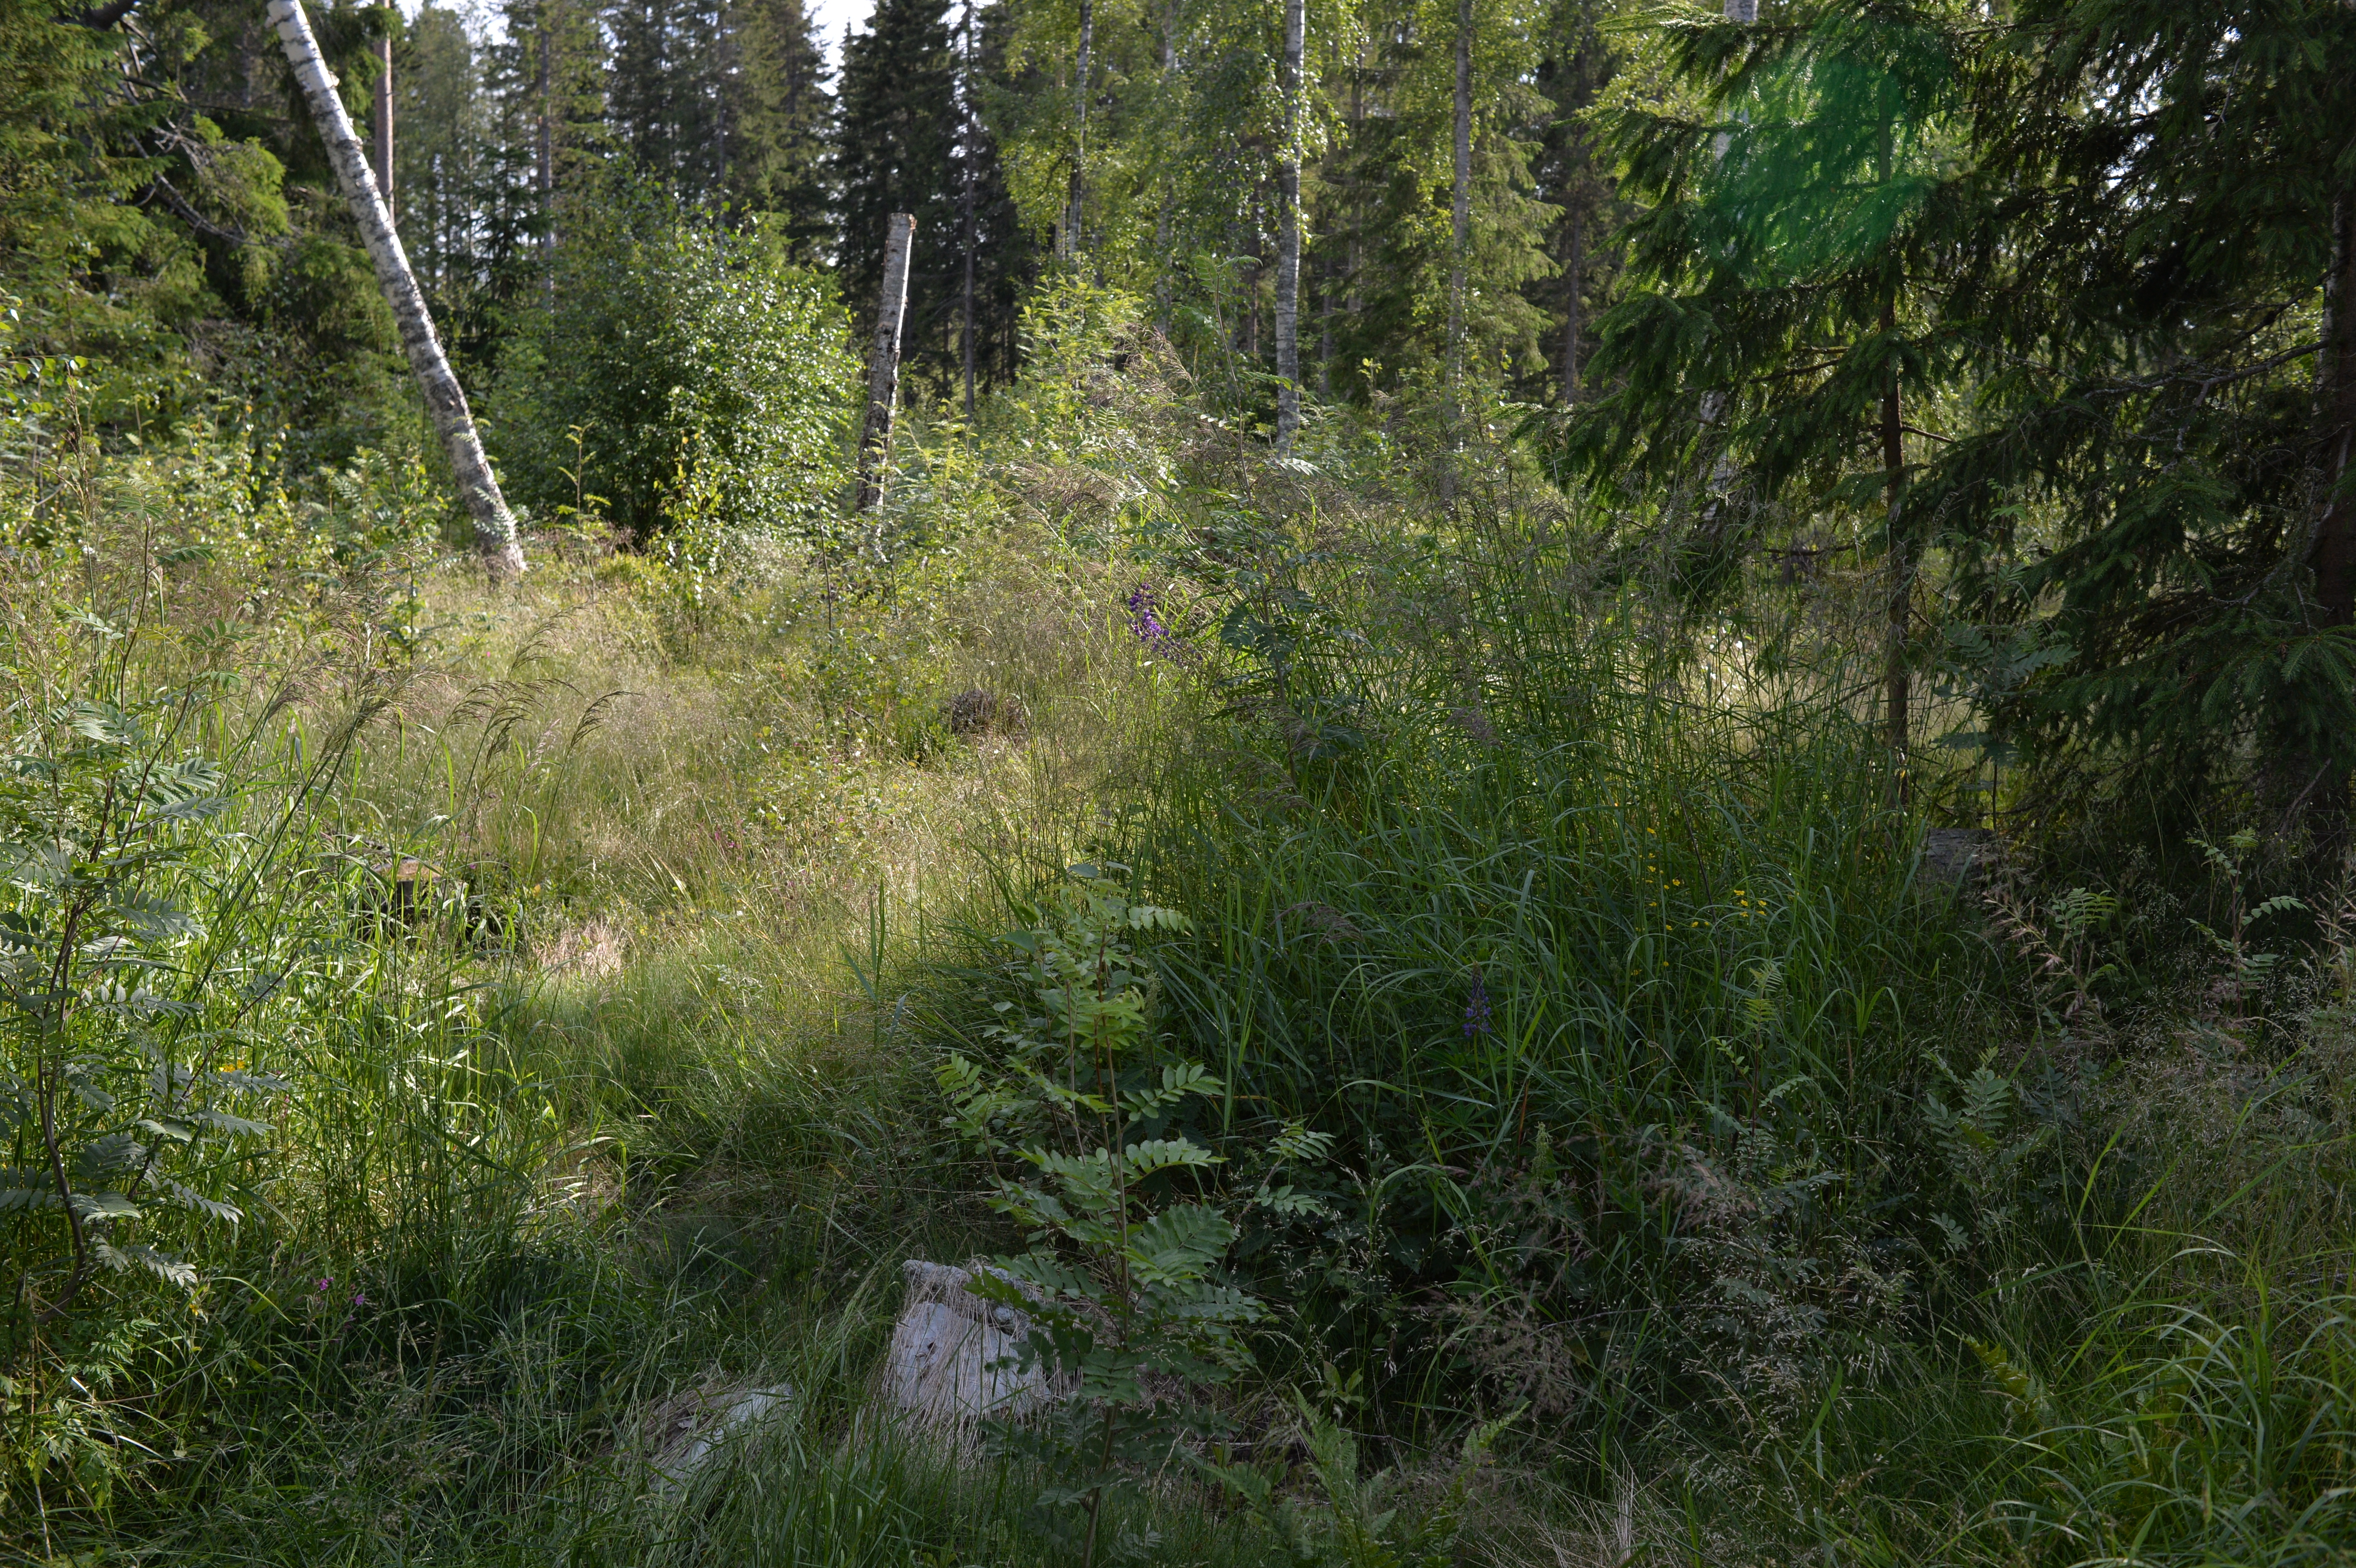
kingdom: Plantae
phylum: Tracheophyta
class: Magnoliopsida
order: Fabales
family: Fabaceae
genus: Lupinus
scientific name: Lupinus polyphyllus
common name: Garden lupin
